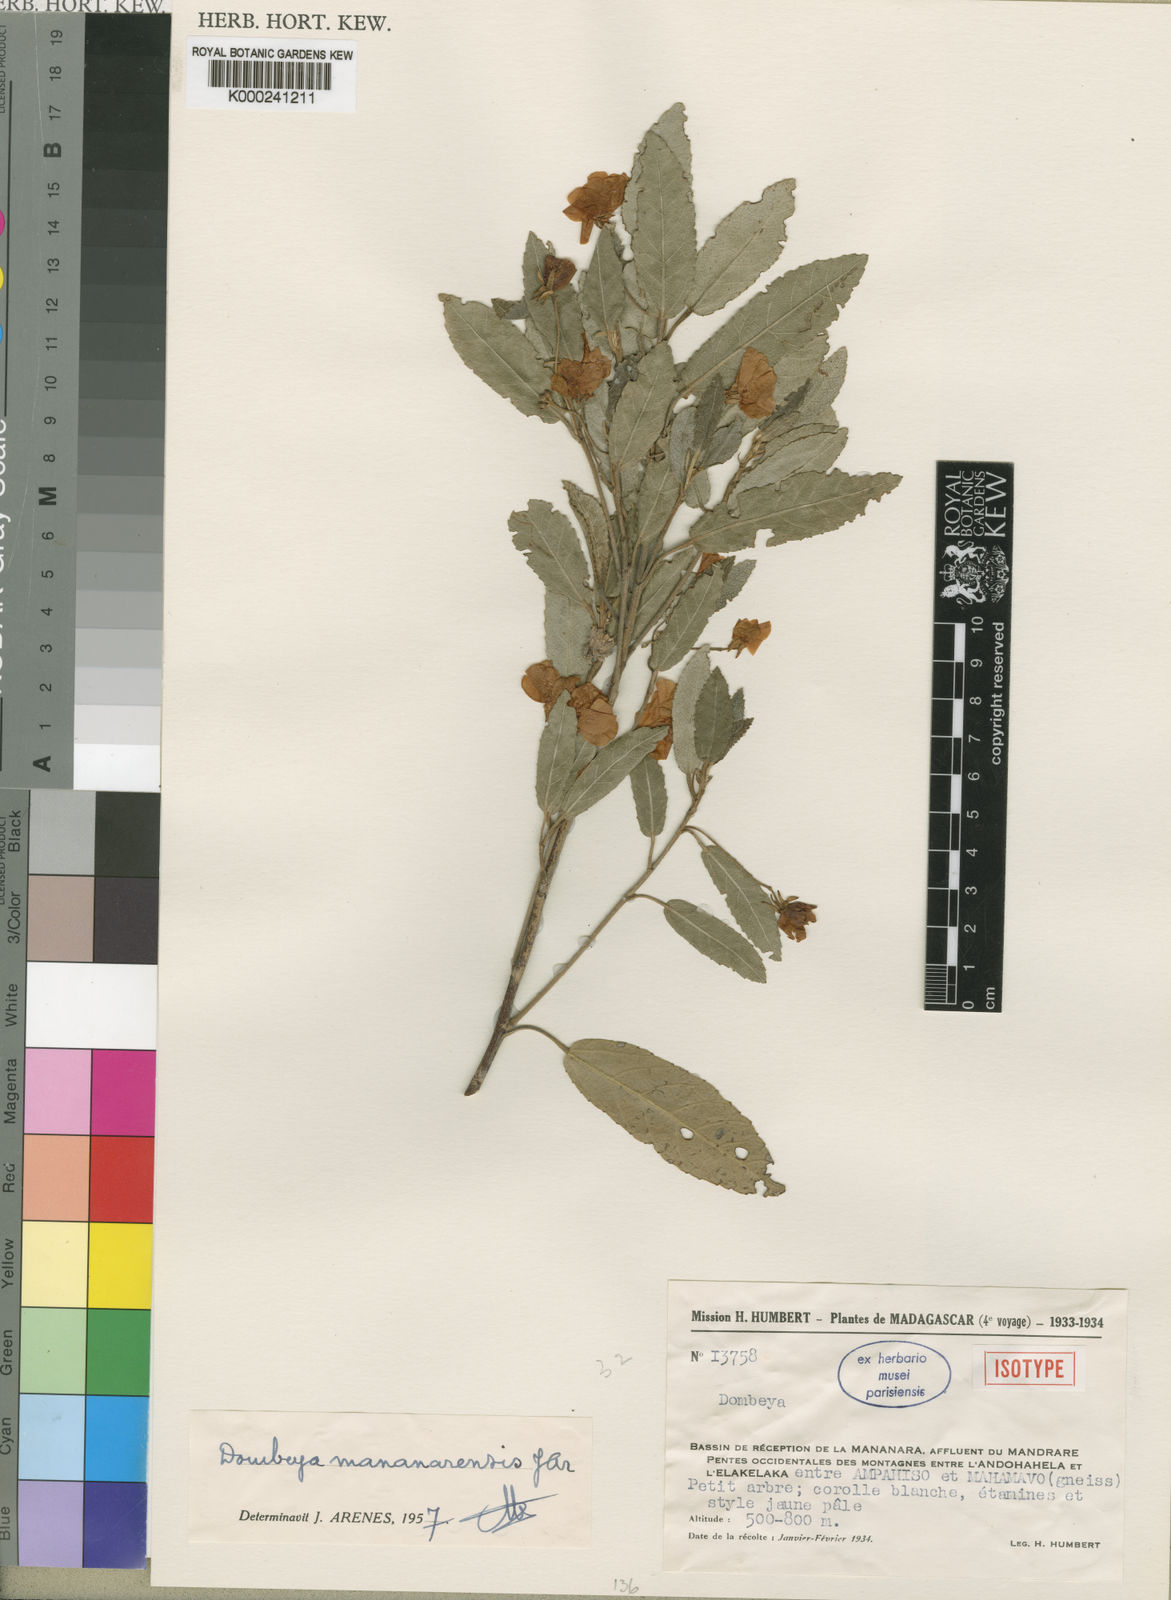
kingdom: Plantae
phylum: Tracheophyta
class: Magnoliopsida
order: Malvales
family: Malvaceae
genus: Dombeya
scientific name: Dombeya mananarensis
